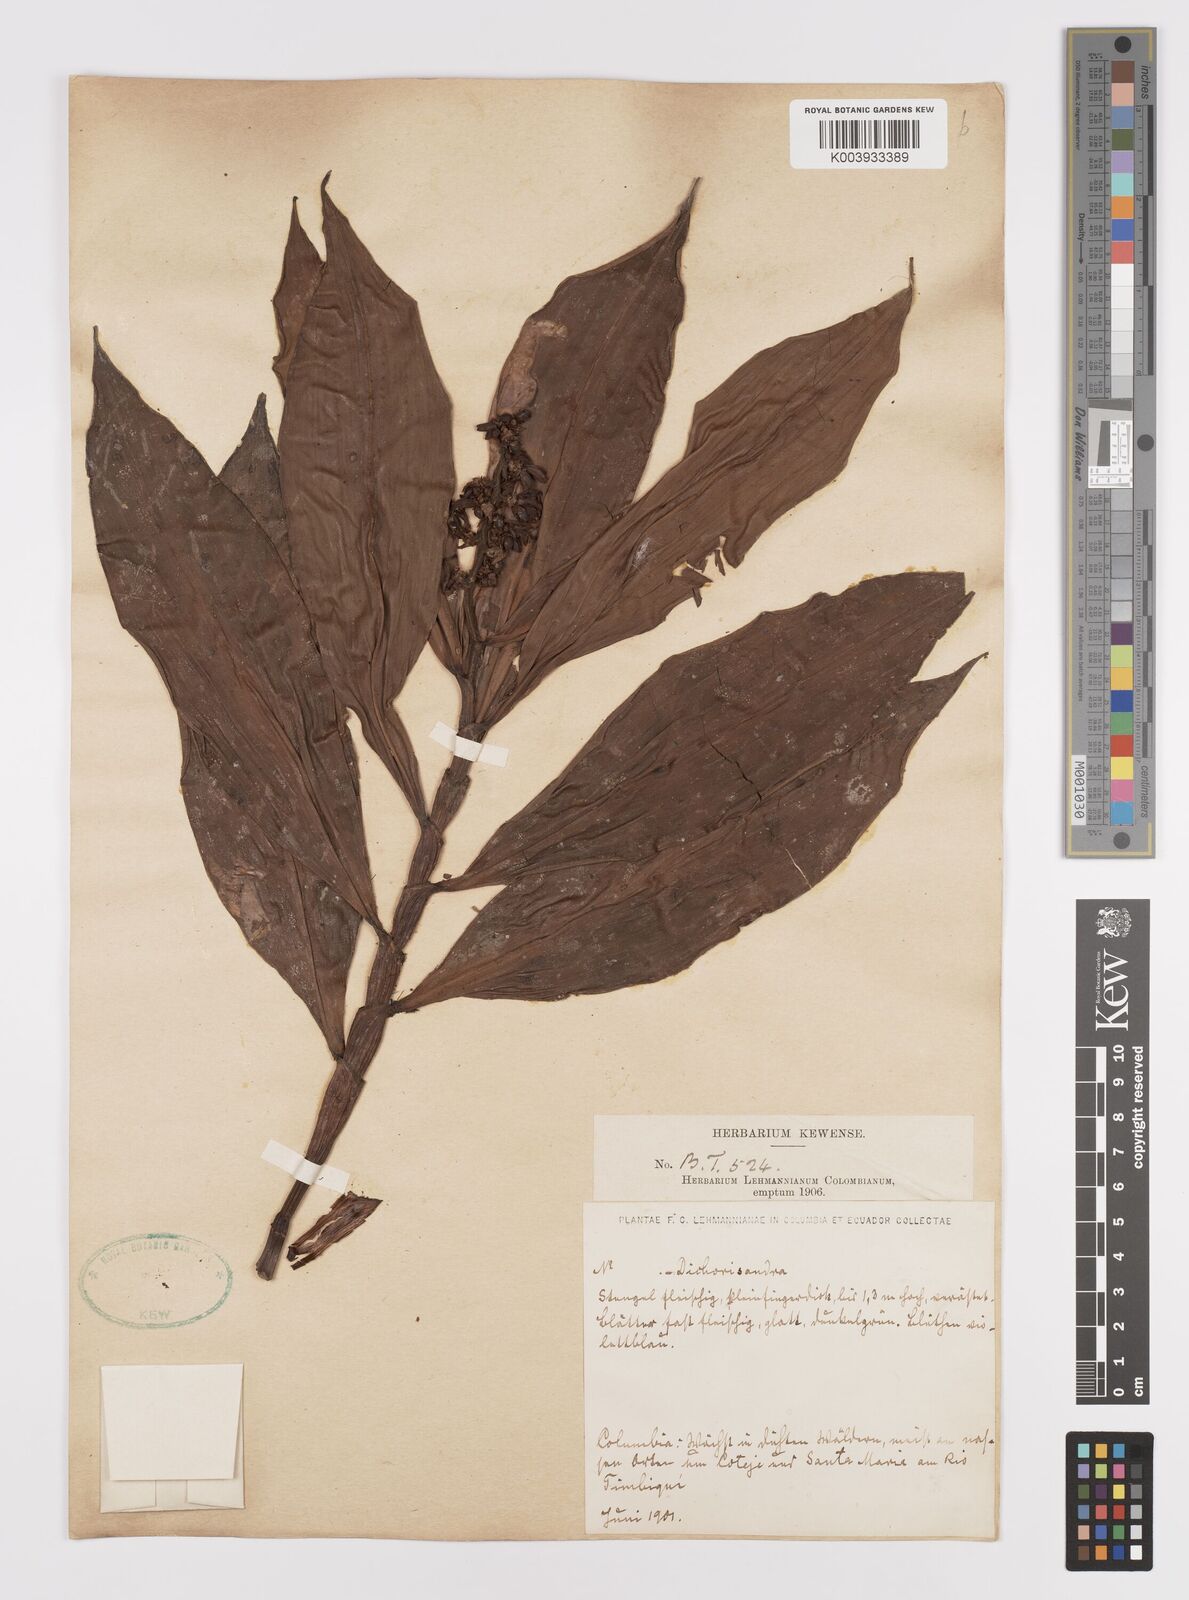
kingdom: Plantae
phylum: Tracheophyta
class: Liliopsida
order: Commelinales
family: Commelinaceae
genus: Dichorisandra
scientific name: Dichorisandra
